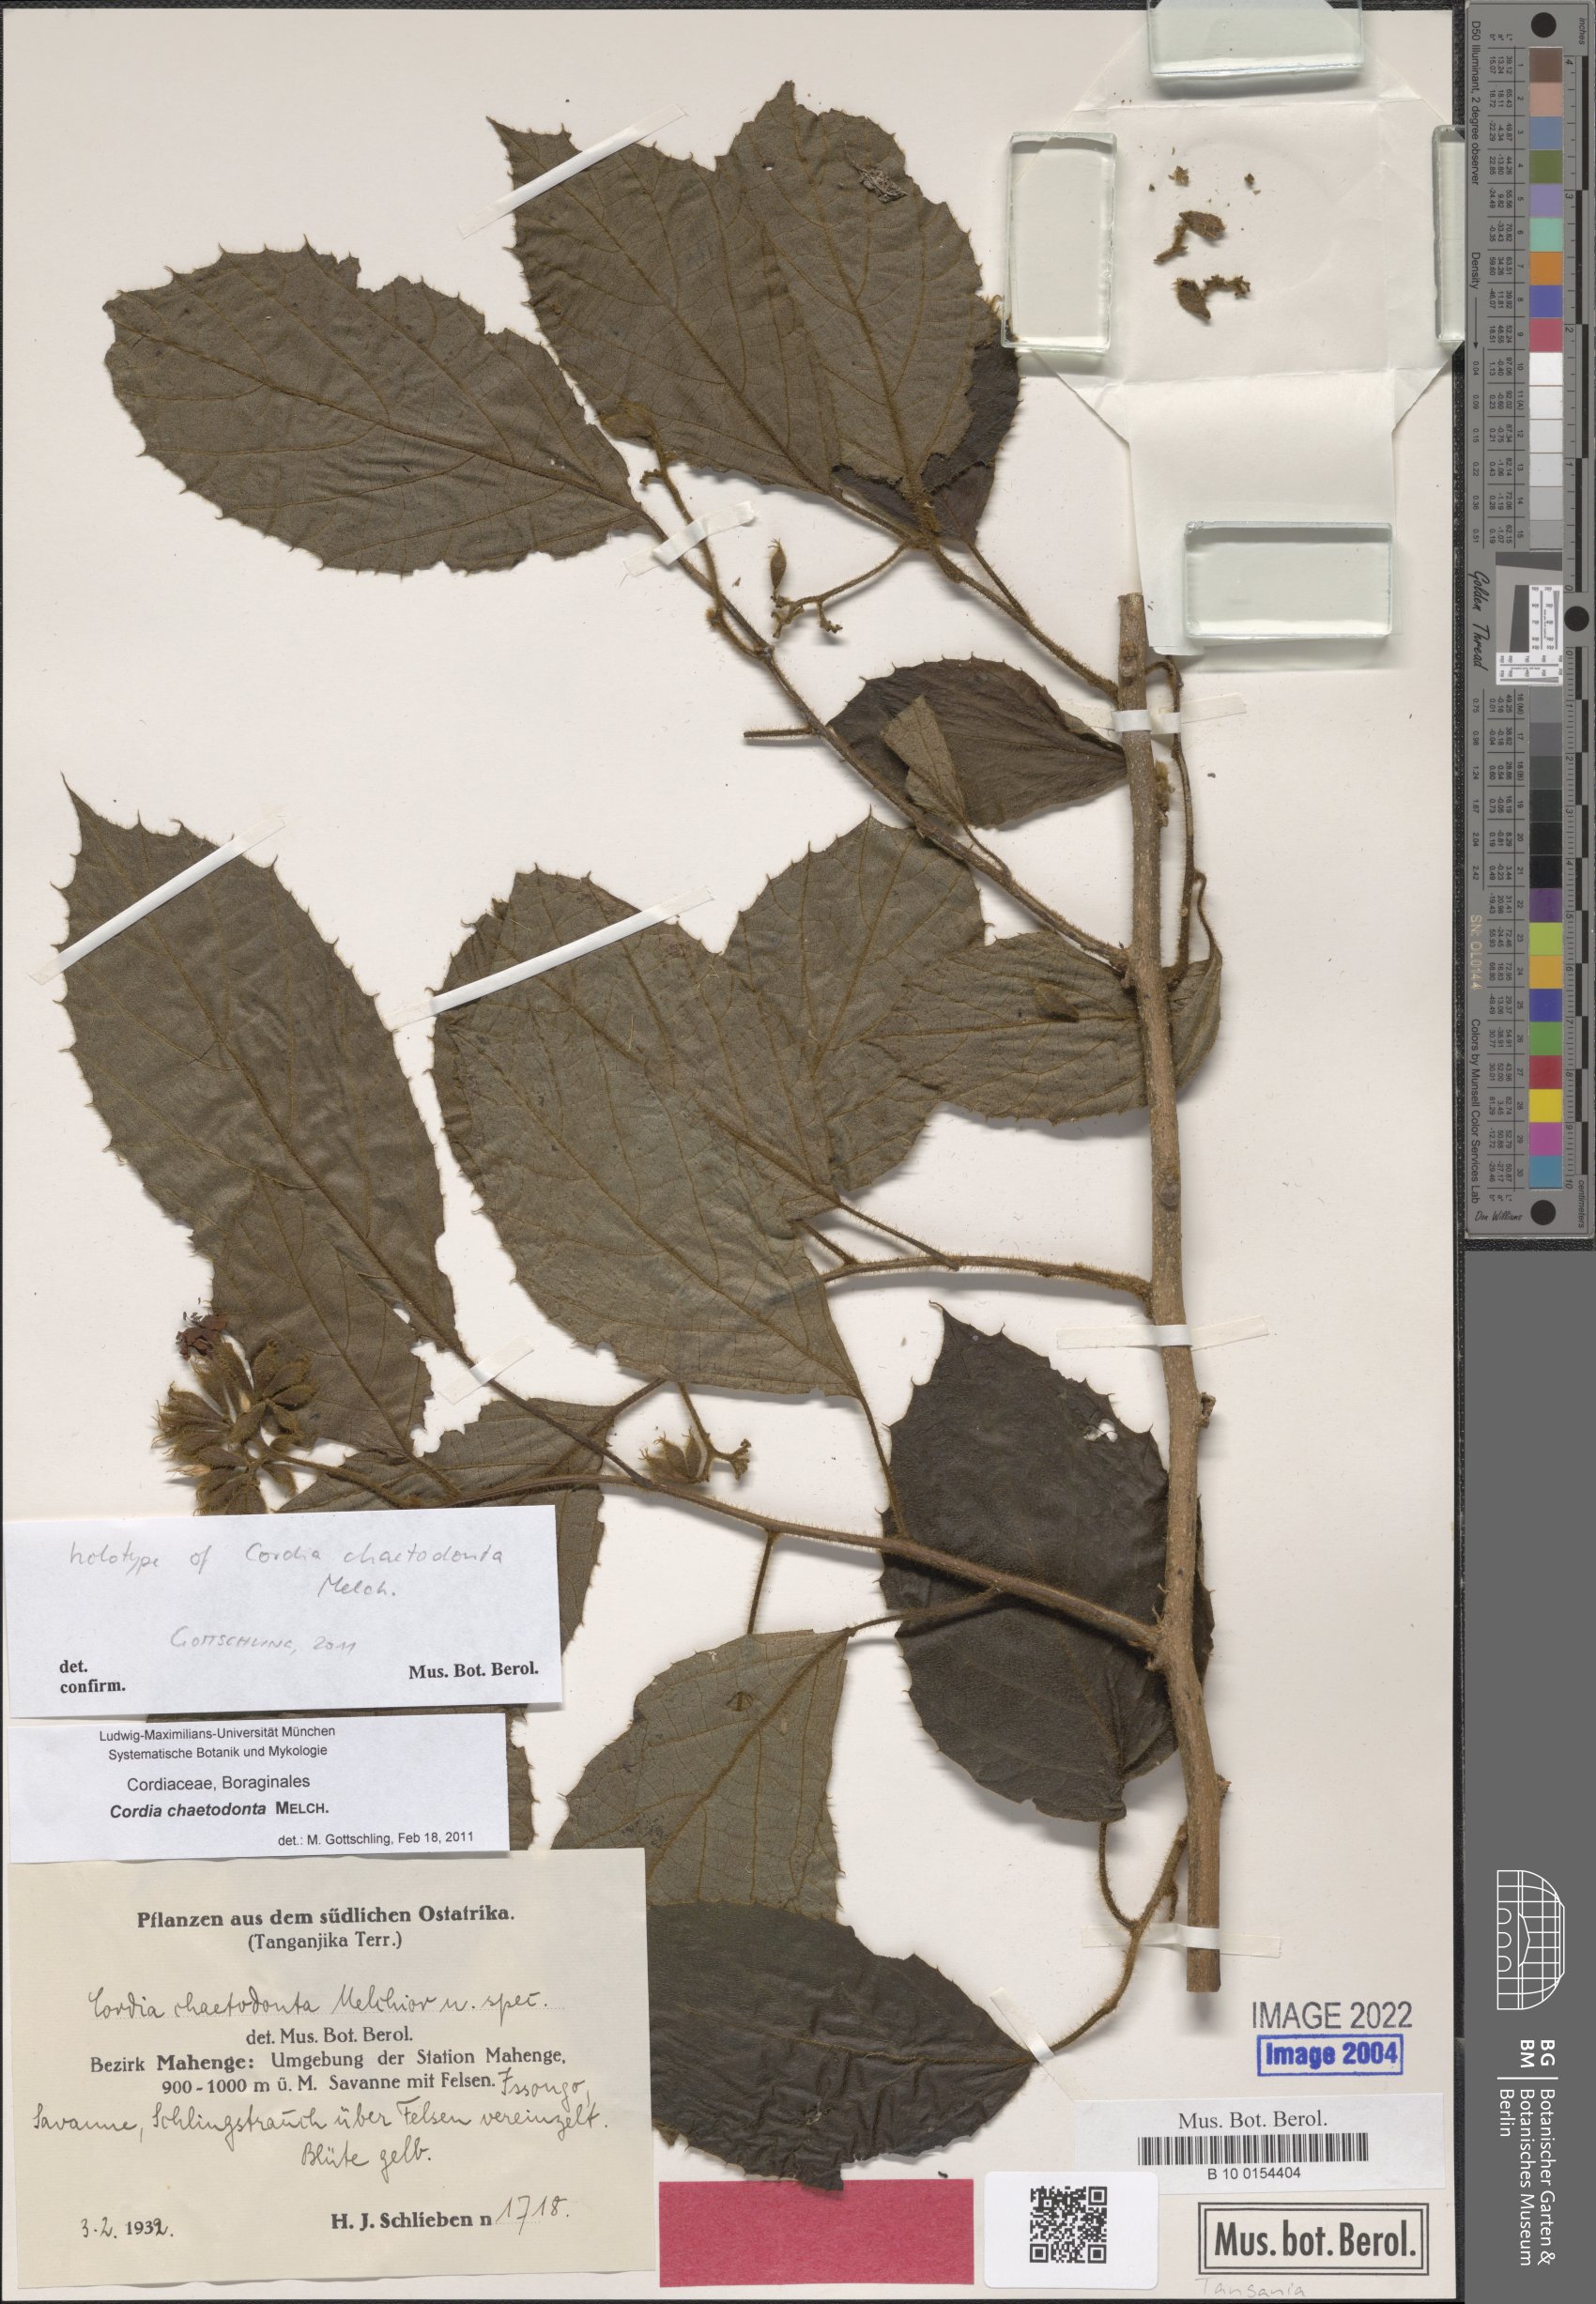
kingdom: Plantae
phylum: Tracheophyta
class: Magnoliopsida
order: Boraginales
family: Cordiaceae
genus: Cordia
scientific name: Cordia chaetodonta
